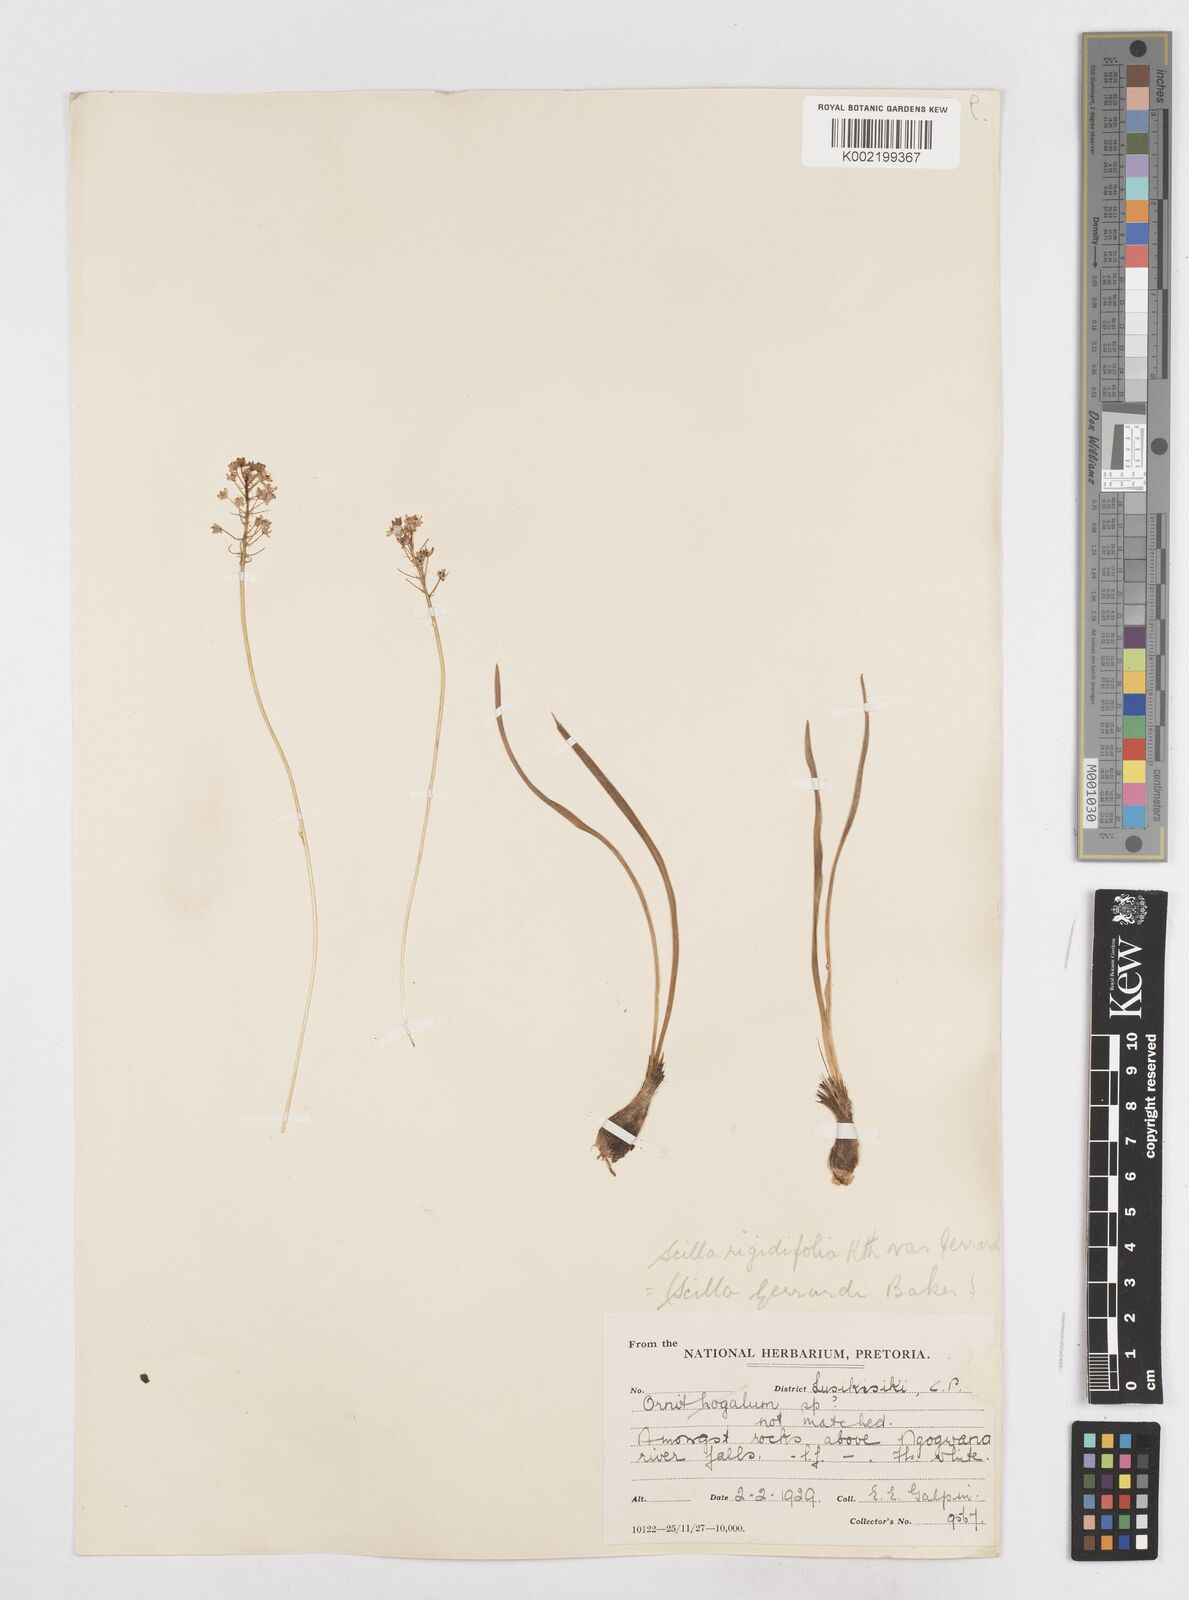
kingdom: Plantae
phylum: Tracheophyta
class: Liliopsida
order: Asparagales
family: Asparagaceae
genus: Schizocarphus
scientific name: Schizocarphus nervosus
